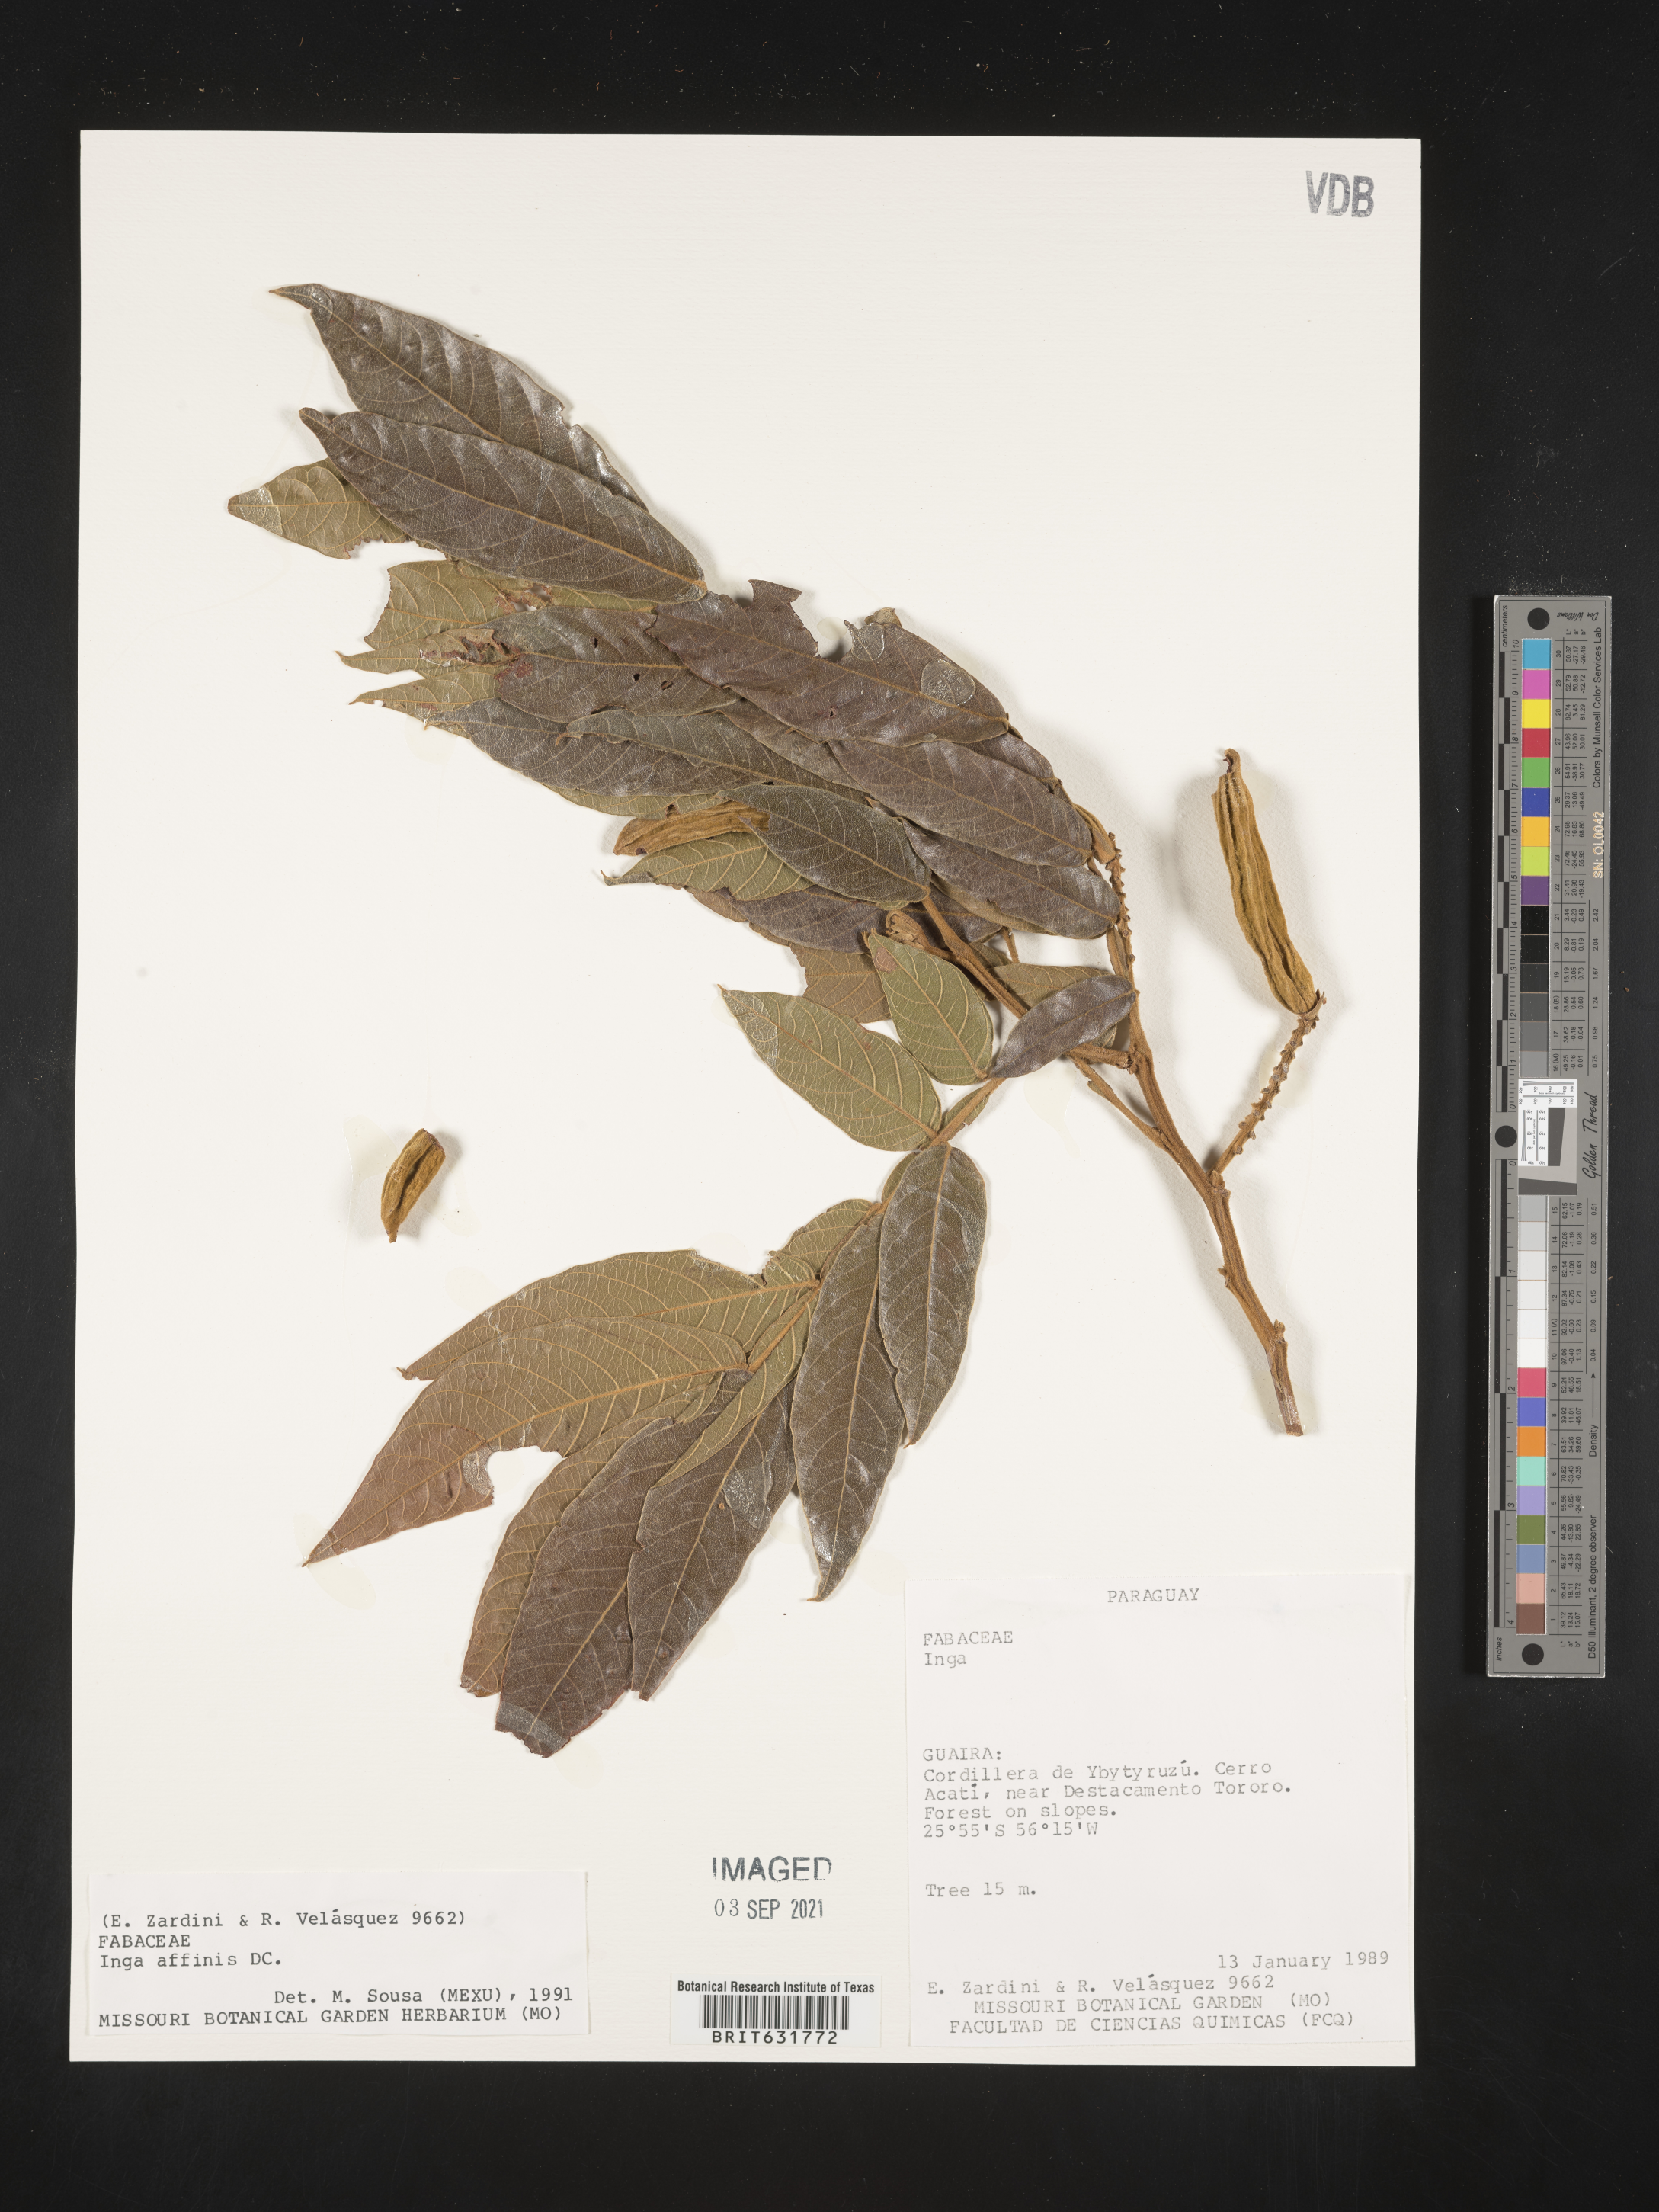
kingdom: Plantae
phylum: Tracheophyta
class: Magnoliopsida
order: Fabales
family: Fabaceae
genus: Inga
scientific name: Inga
